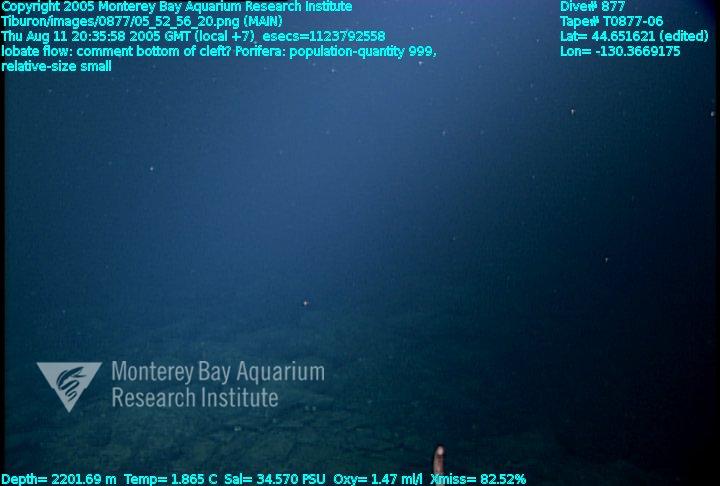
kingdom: Animalia
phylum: Porifera
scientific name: Porifera
